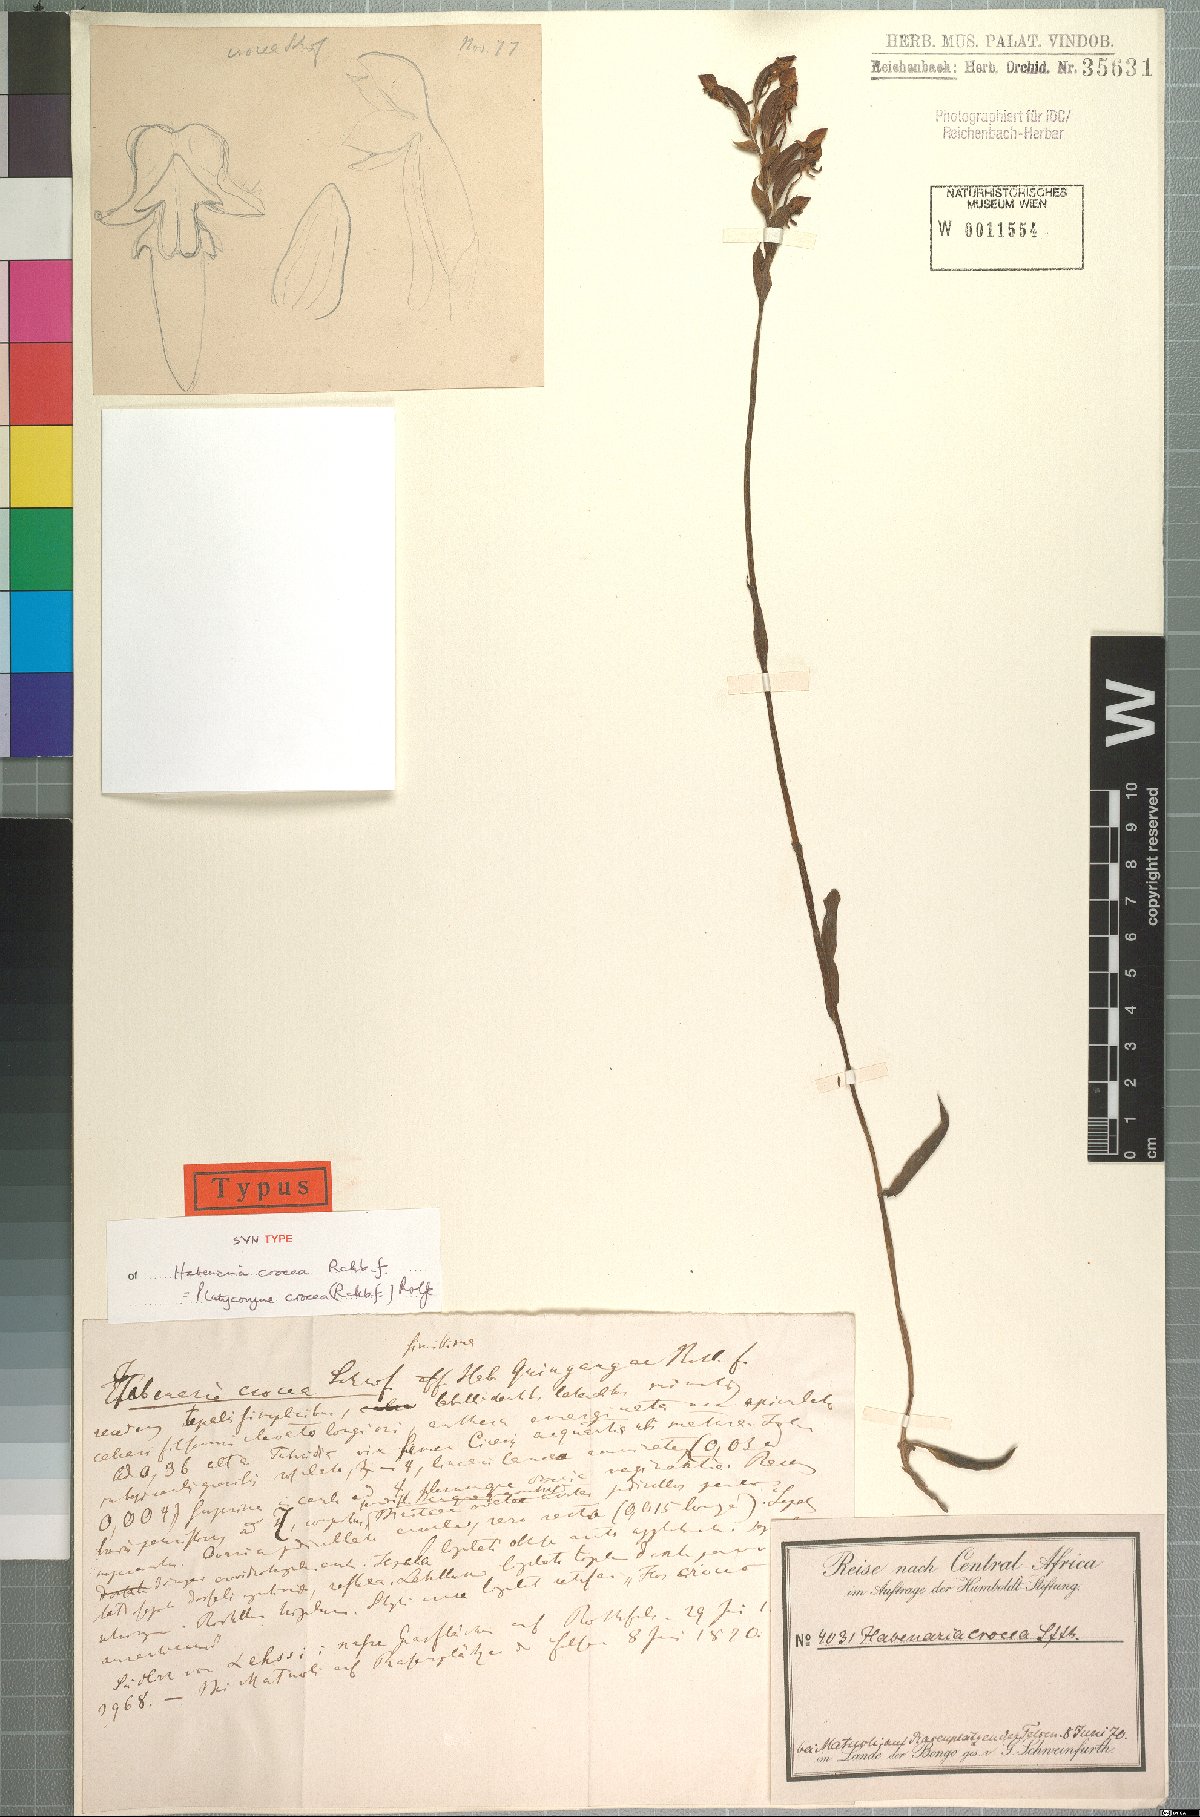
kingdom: Plantae
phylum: Tracheophyta
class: Liliopsida
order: Asparagales
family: Orchidaceae
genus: Platycoryne
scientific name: Platycoryne crocea
